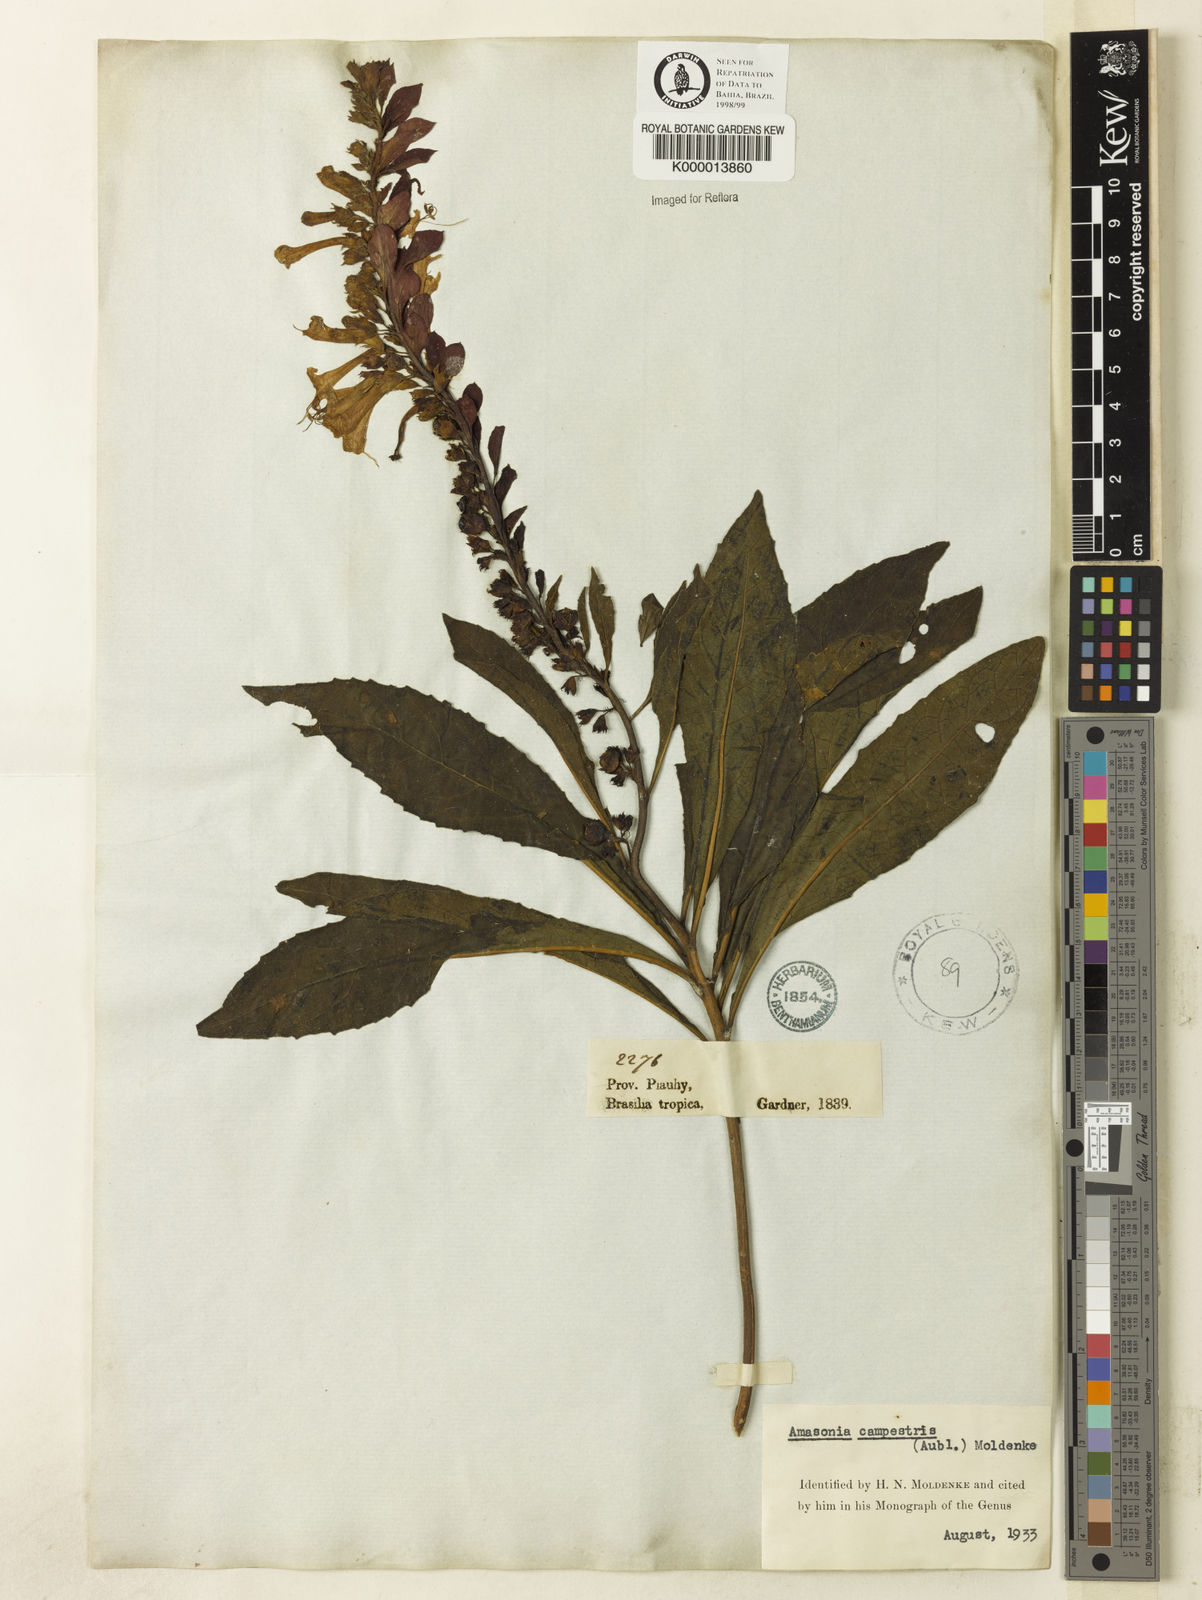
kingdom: Plantae
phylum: Tracheophyta
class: Magnoliopsida
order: Lamiales
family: Lamiaceae
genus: Amasonia
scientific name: Amasonia campestris
